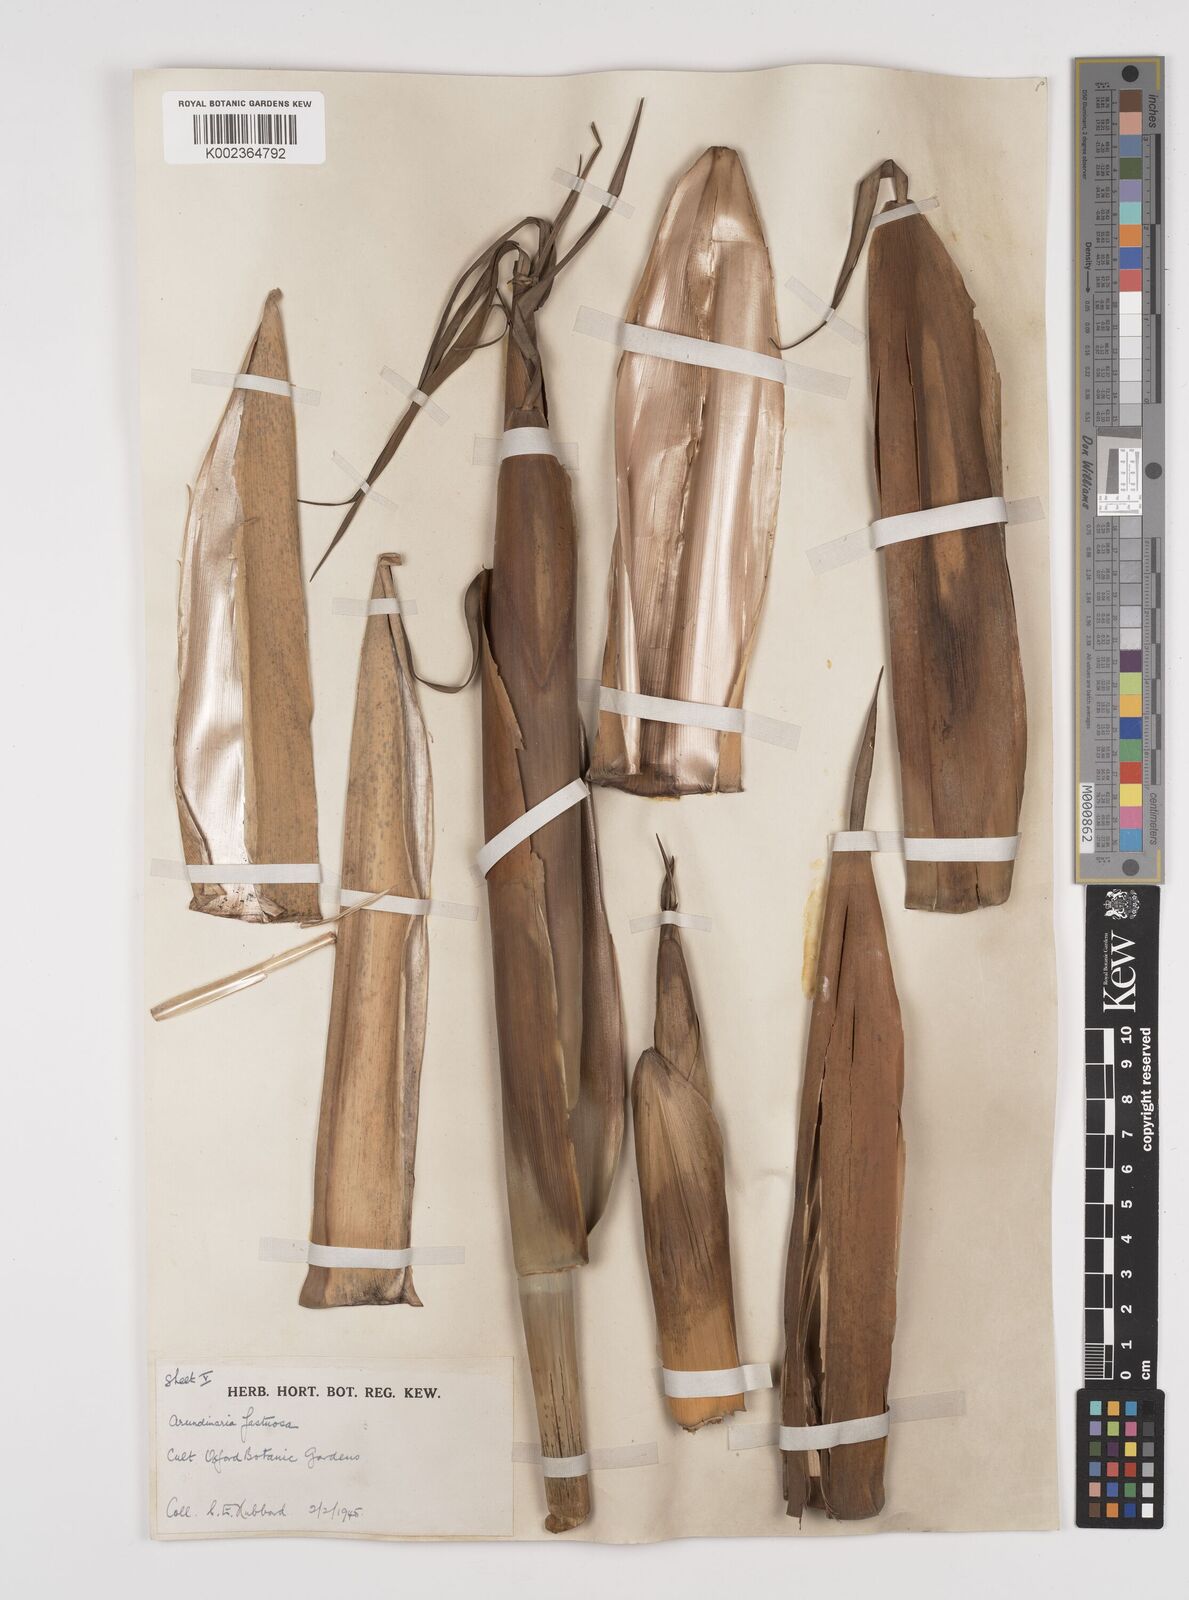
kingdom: Plantae
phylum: Tracheophyta
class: Liliopsida
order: Poales
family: Poaceae
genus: Semiarundinaria
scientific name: Semiarundinaria
